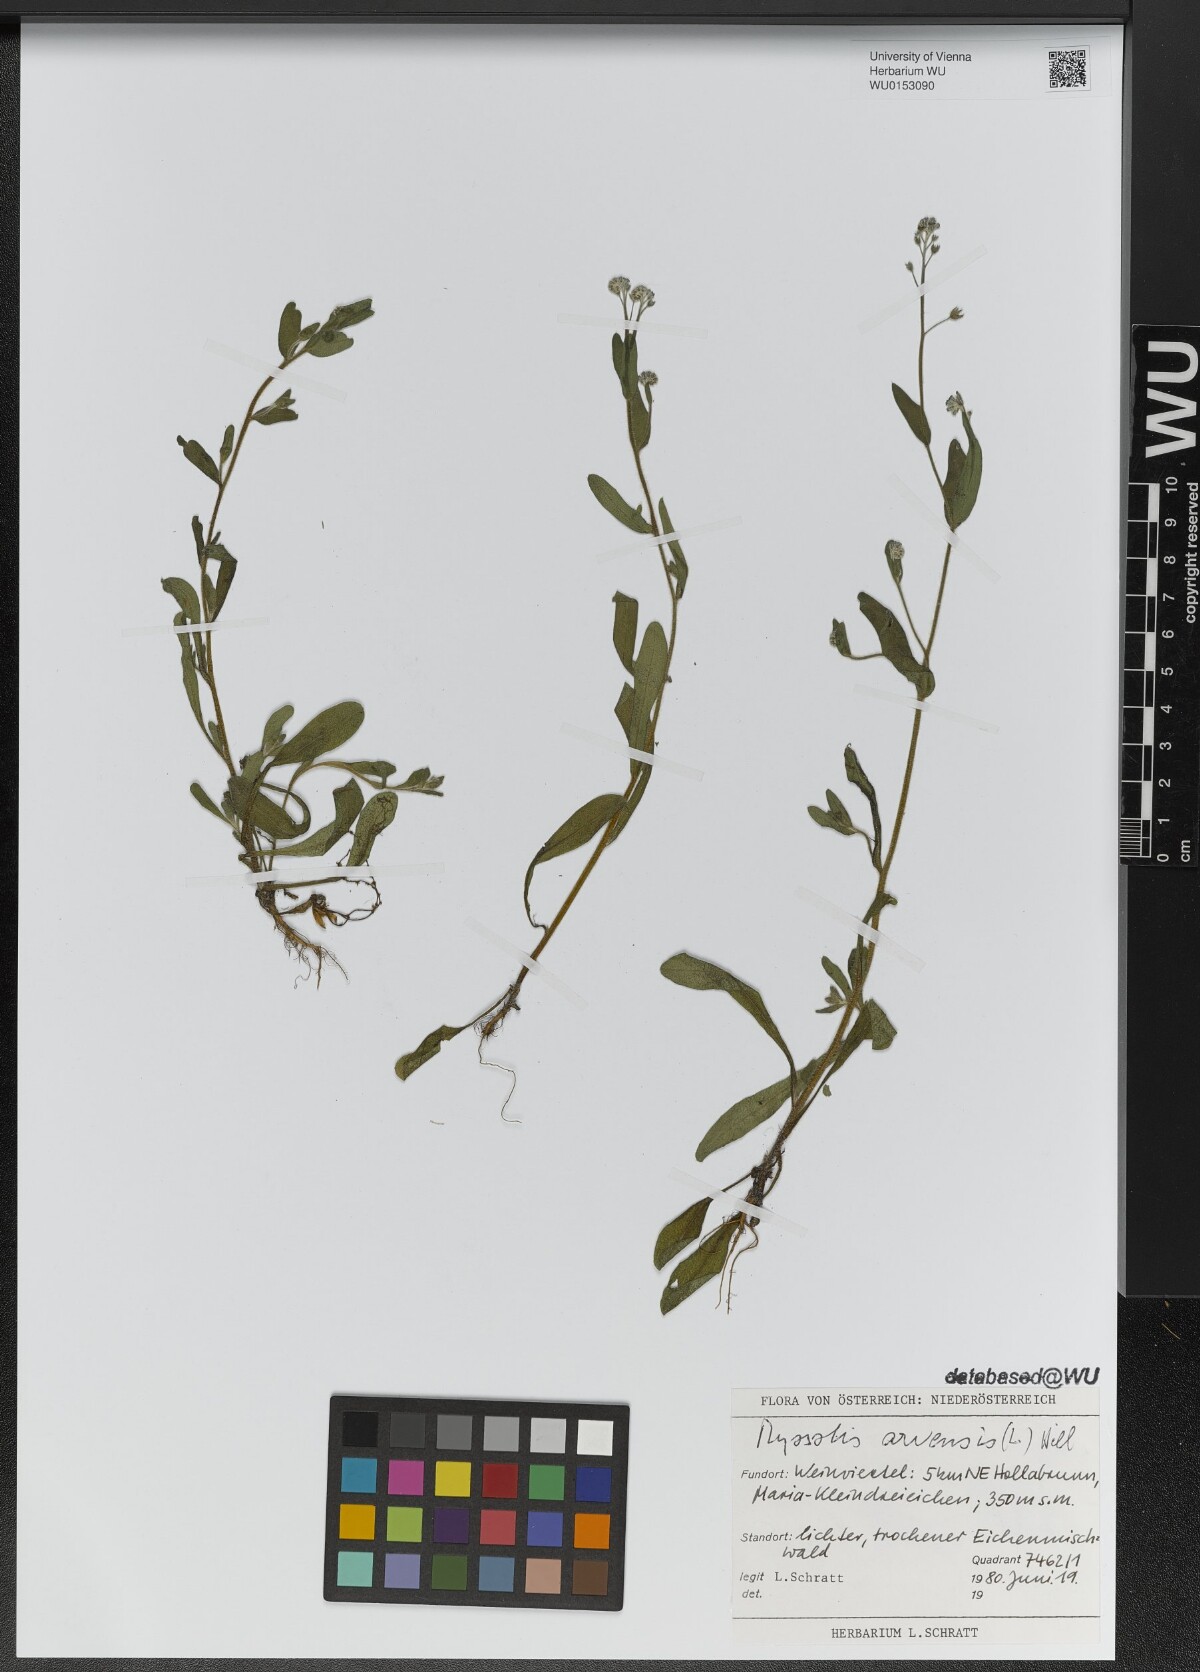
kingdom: Plantae
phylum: Tracheophyta
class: Magnoliopsida
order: Boraginales
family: Boraginaceae
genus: Myosotis
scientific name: Myosotis arvensis
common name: Field forget-me-not
